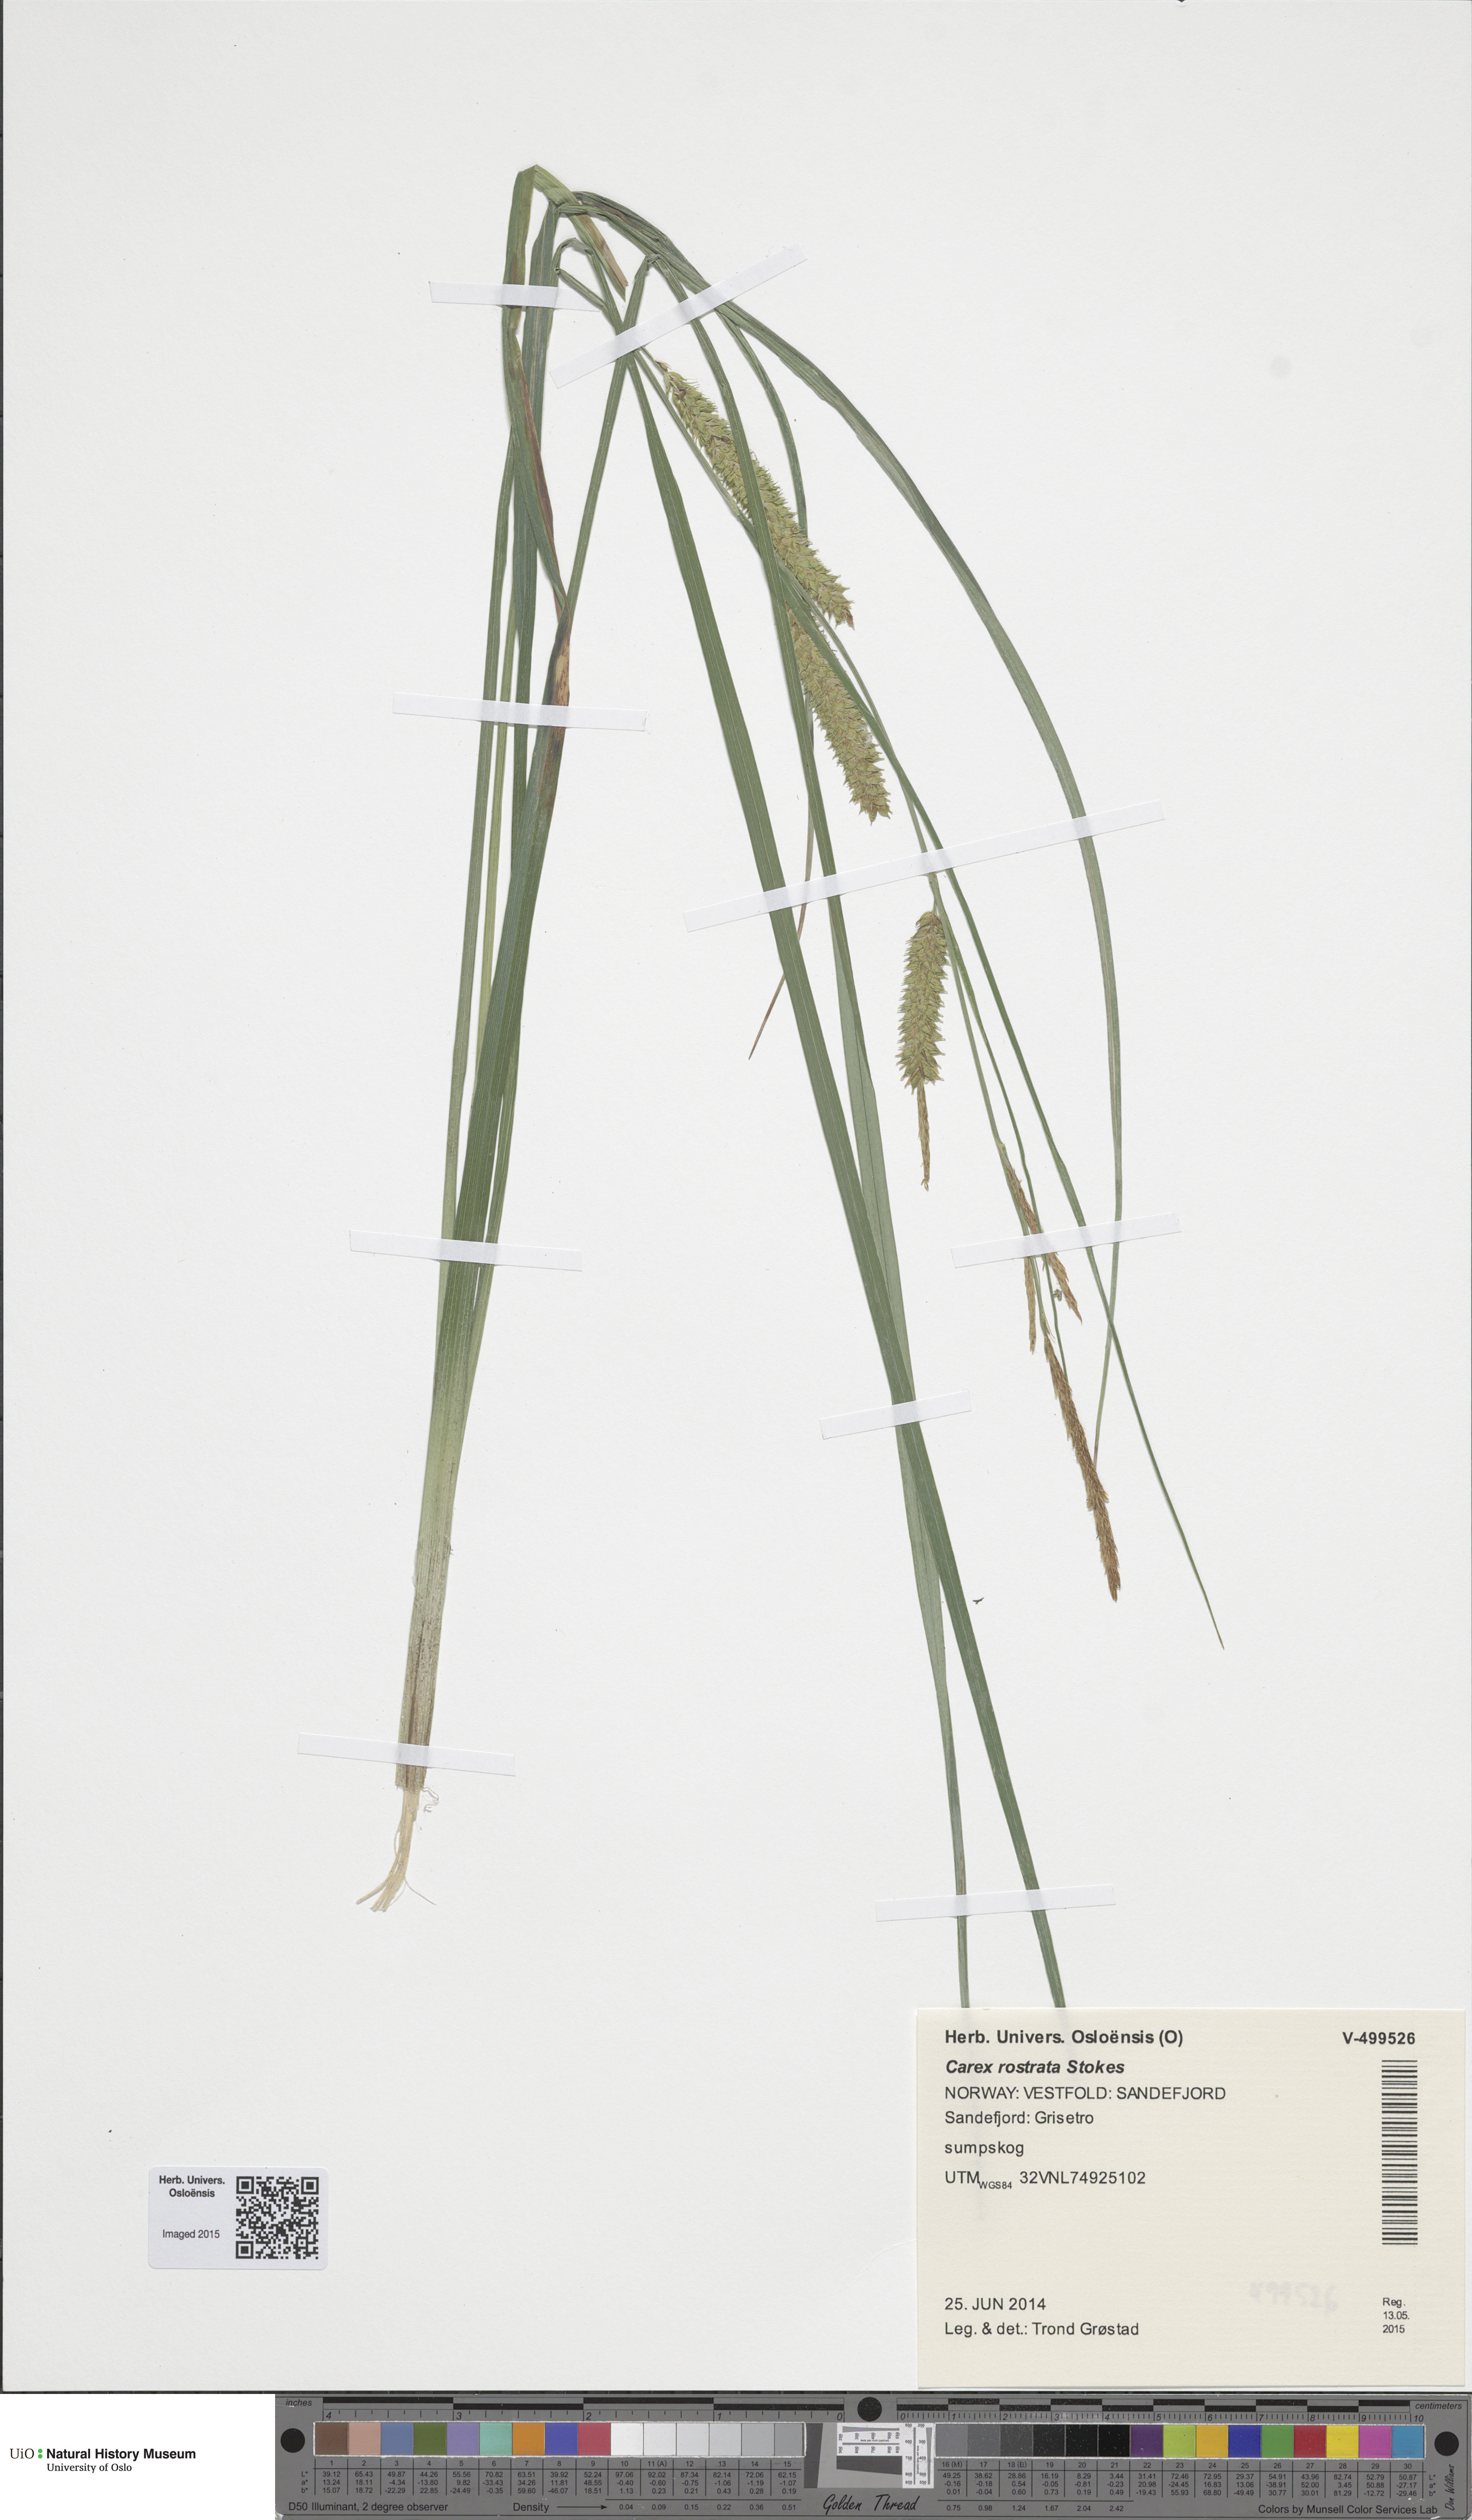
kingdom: Plantae
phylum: Tracheophyta
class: Liliopsida
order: Poales
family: Cyperaceae
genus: Carex
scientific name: Carex rostrata
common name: Bottle sedge
